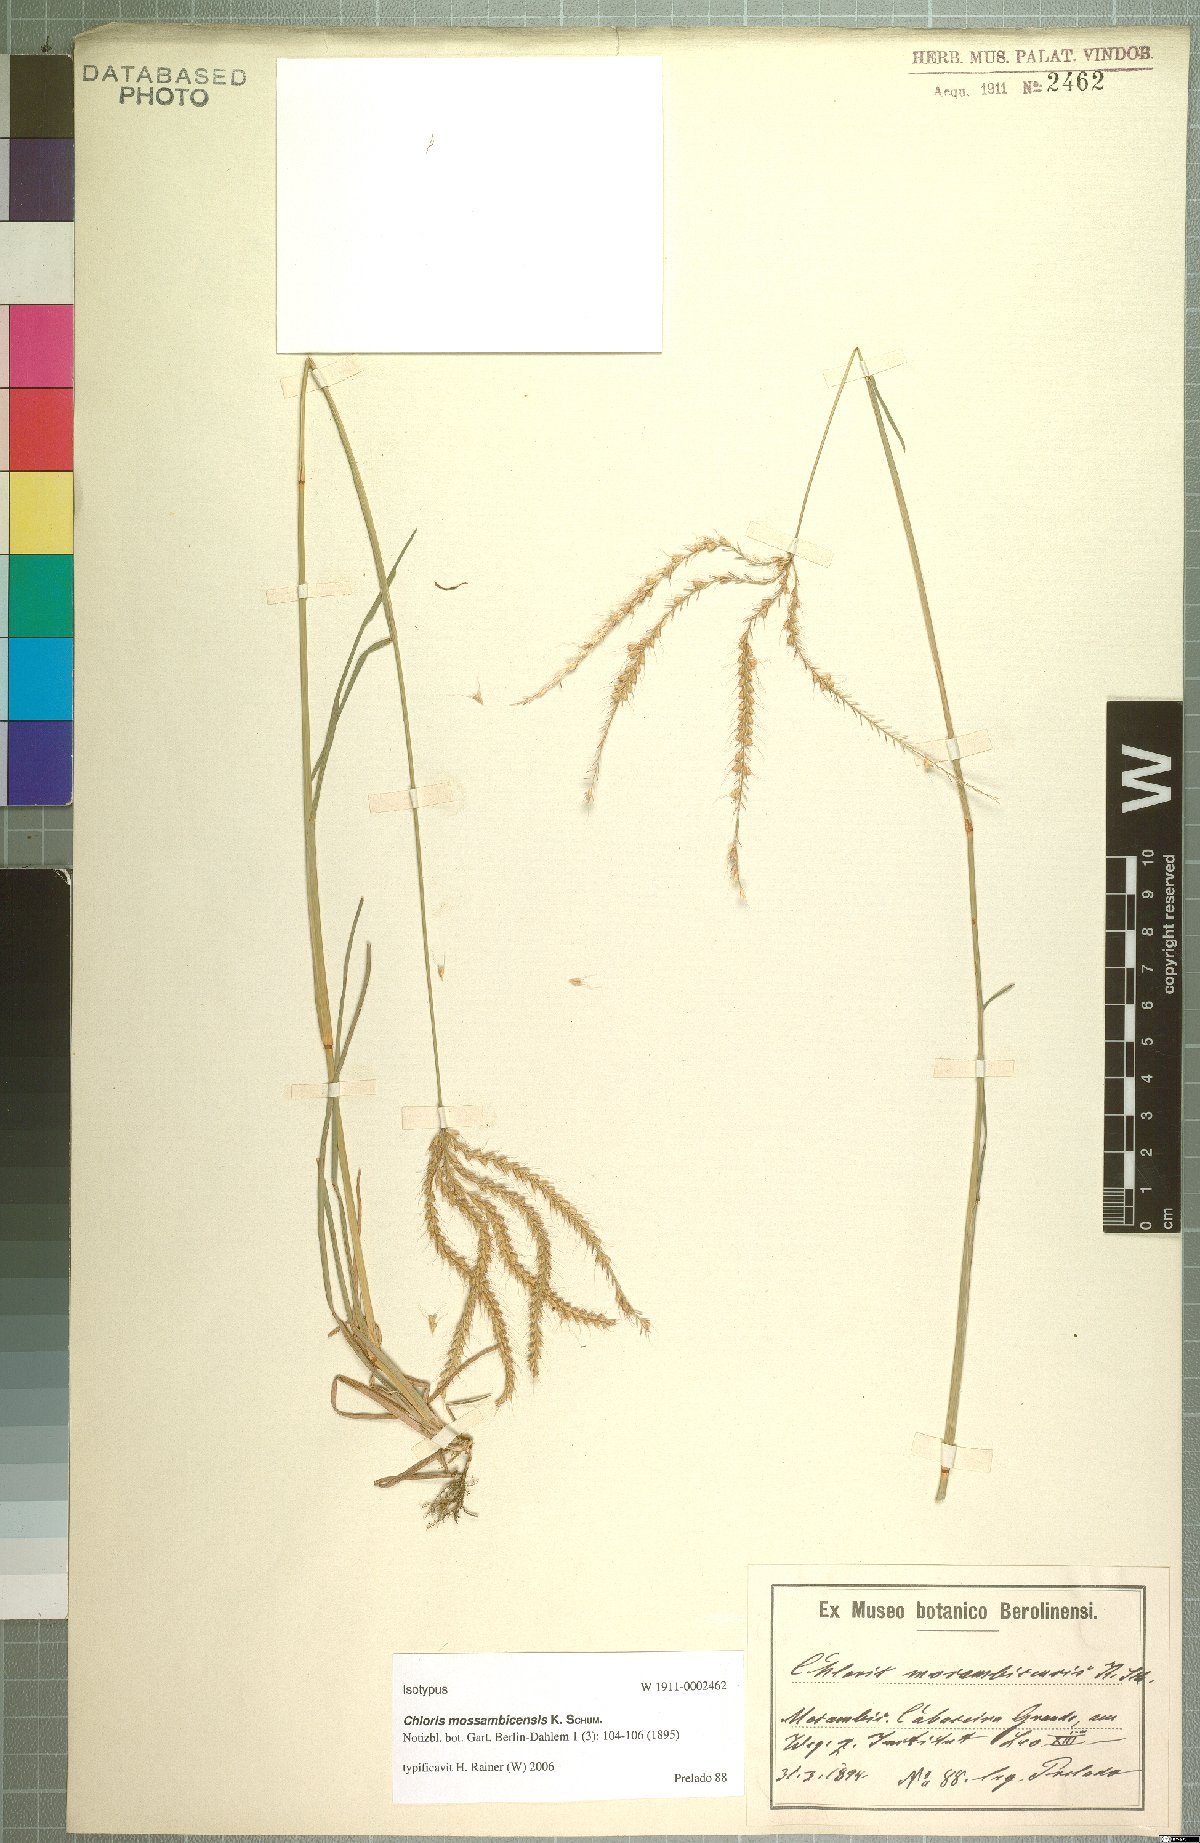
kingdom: Plantae
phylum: Tracheophyta
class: Liliopsida
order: Poales
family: Poaceae
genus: Chloris
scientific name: Chloris mossambicensis
